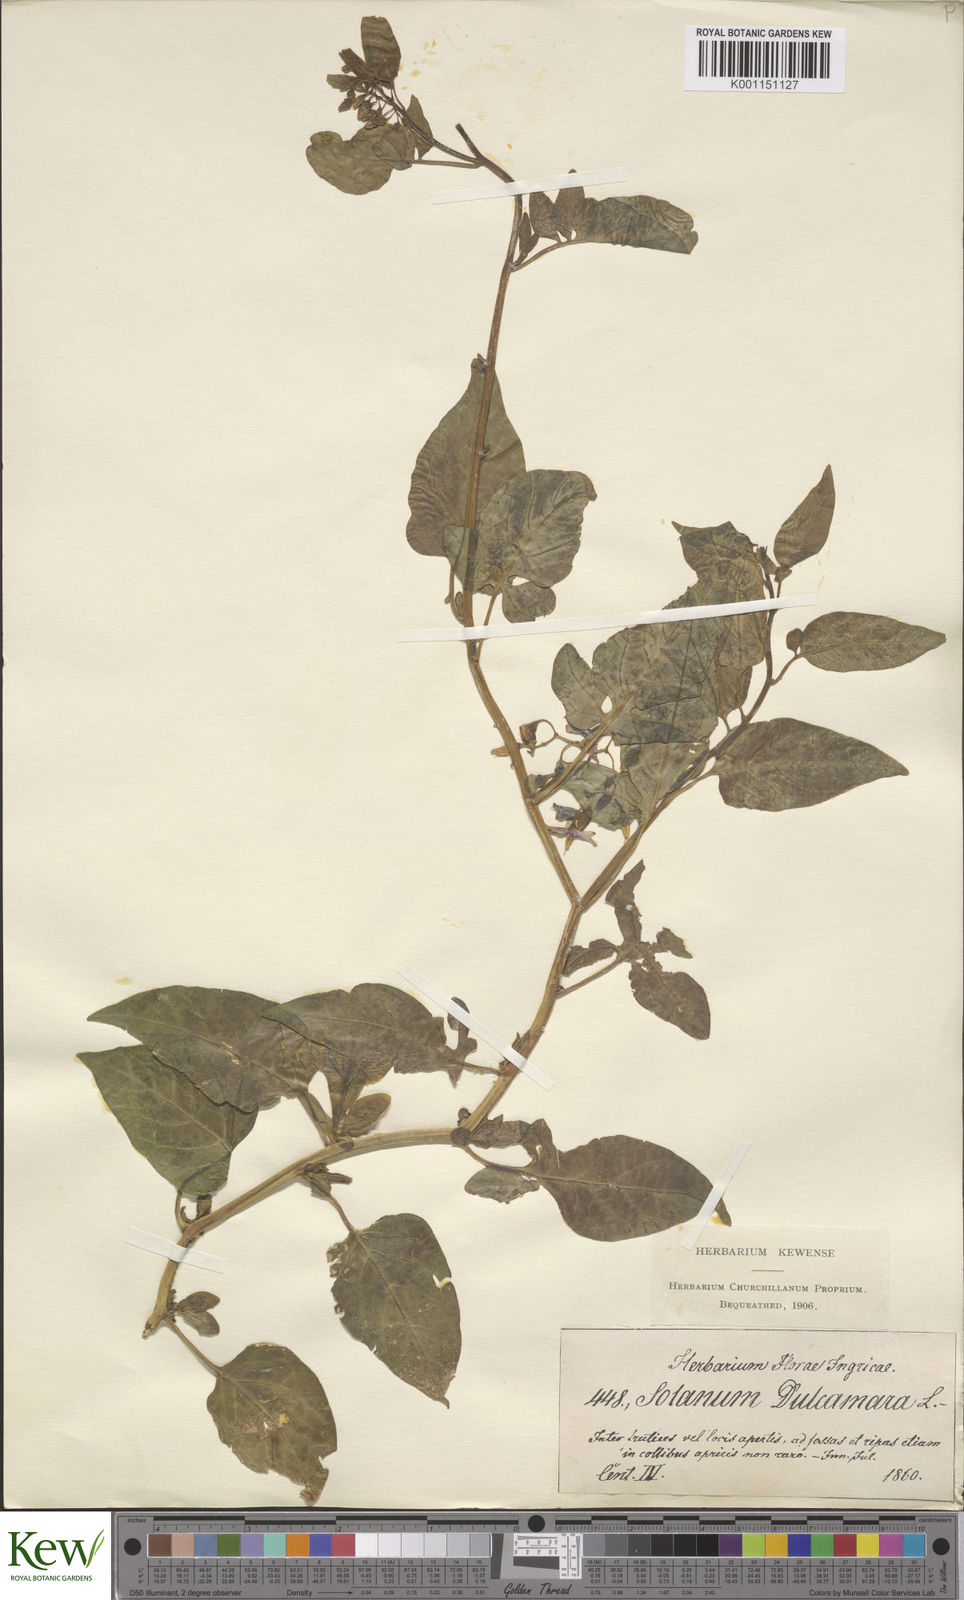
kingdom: Plantae
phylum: Tracheophyta
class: Magnoliopsida
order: Solanales
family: Solanaceae
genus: Solanum
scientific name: Solanum dulcamara
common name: Climbing nightshade
